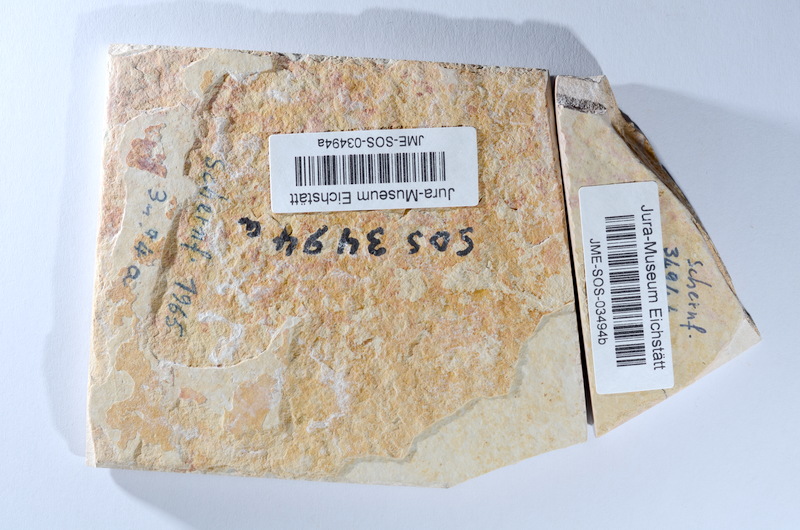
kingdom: Animalia
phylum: Chordata
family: Ascalaboidae
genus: Tharsis
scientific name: Tharsis dubius
